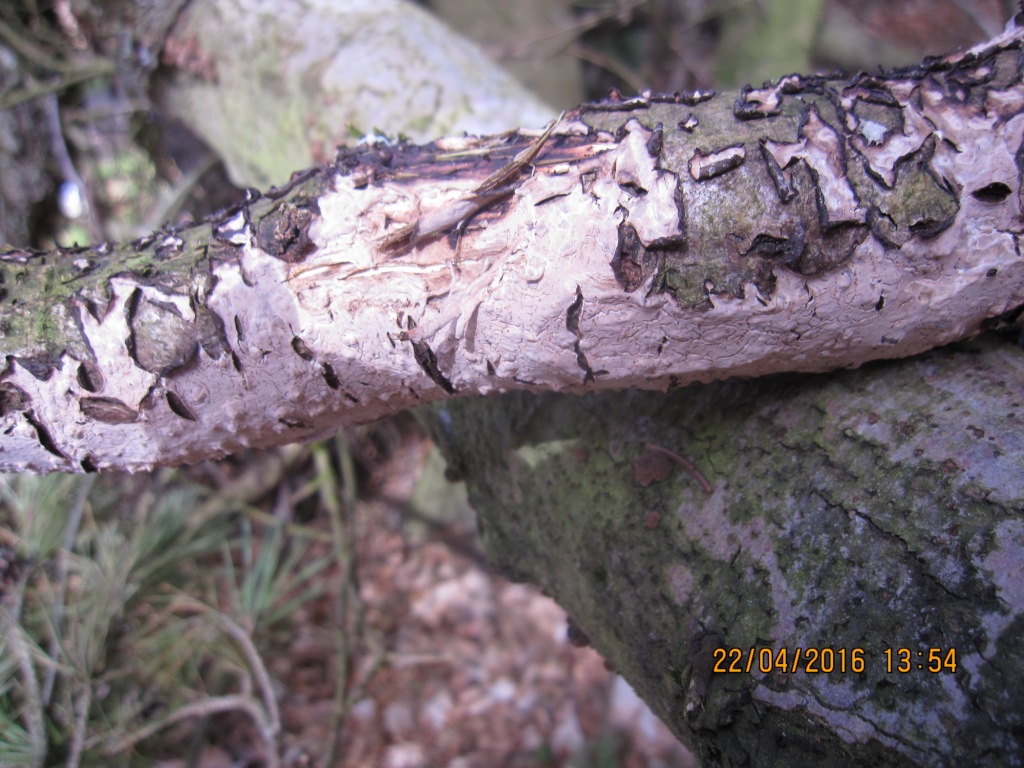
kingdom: Fungi
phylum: Basidiomycota
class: Agaricomycetes
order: Russulales
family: Peniophoraceae
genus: Peniophora
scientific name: Peniophora quercina
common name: ege-voksskind
